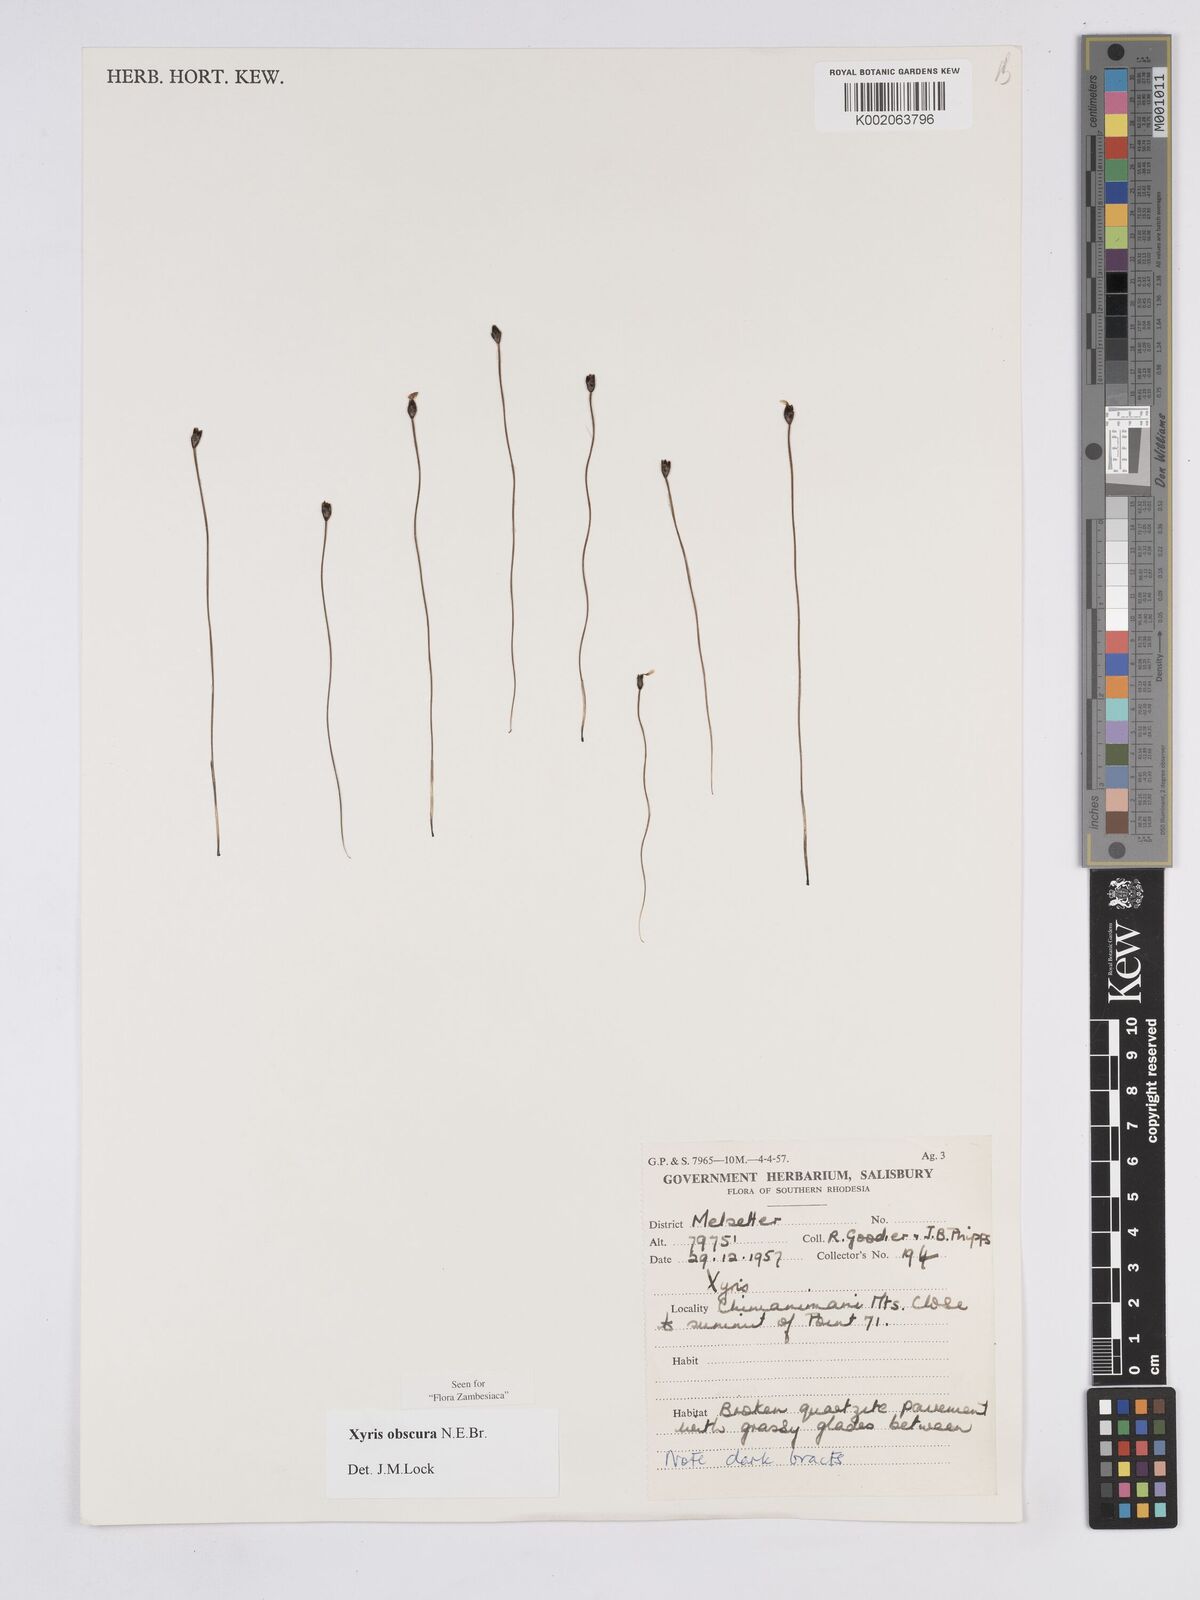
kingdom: Plantae
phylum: Tracheophyta
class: Liliopsida
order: Poales
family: Xyridaceae
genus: Xyris
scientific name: Xyris obscura
